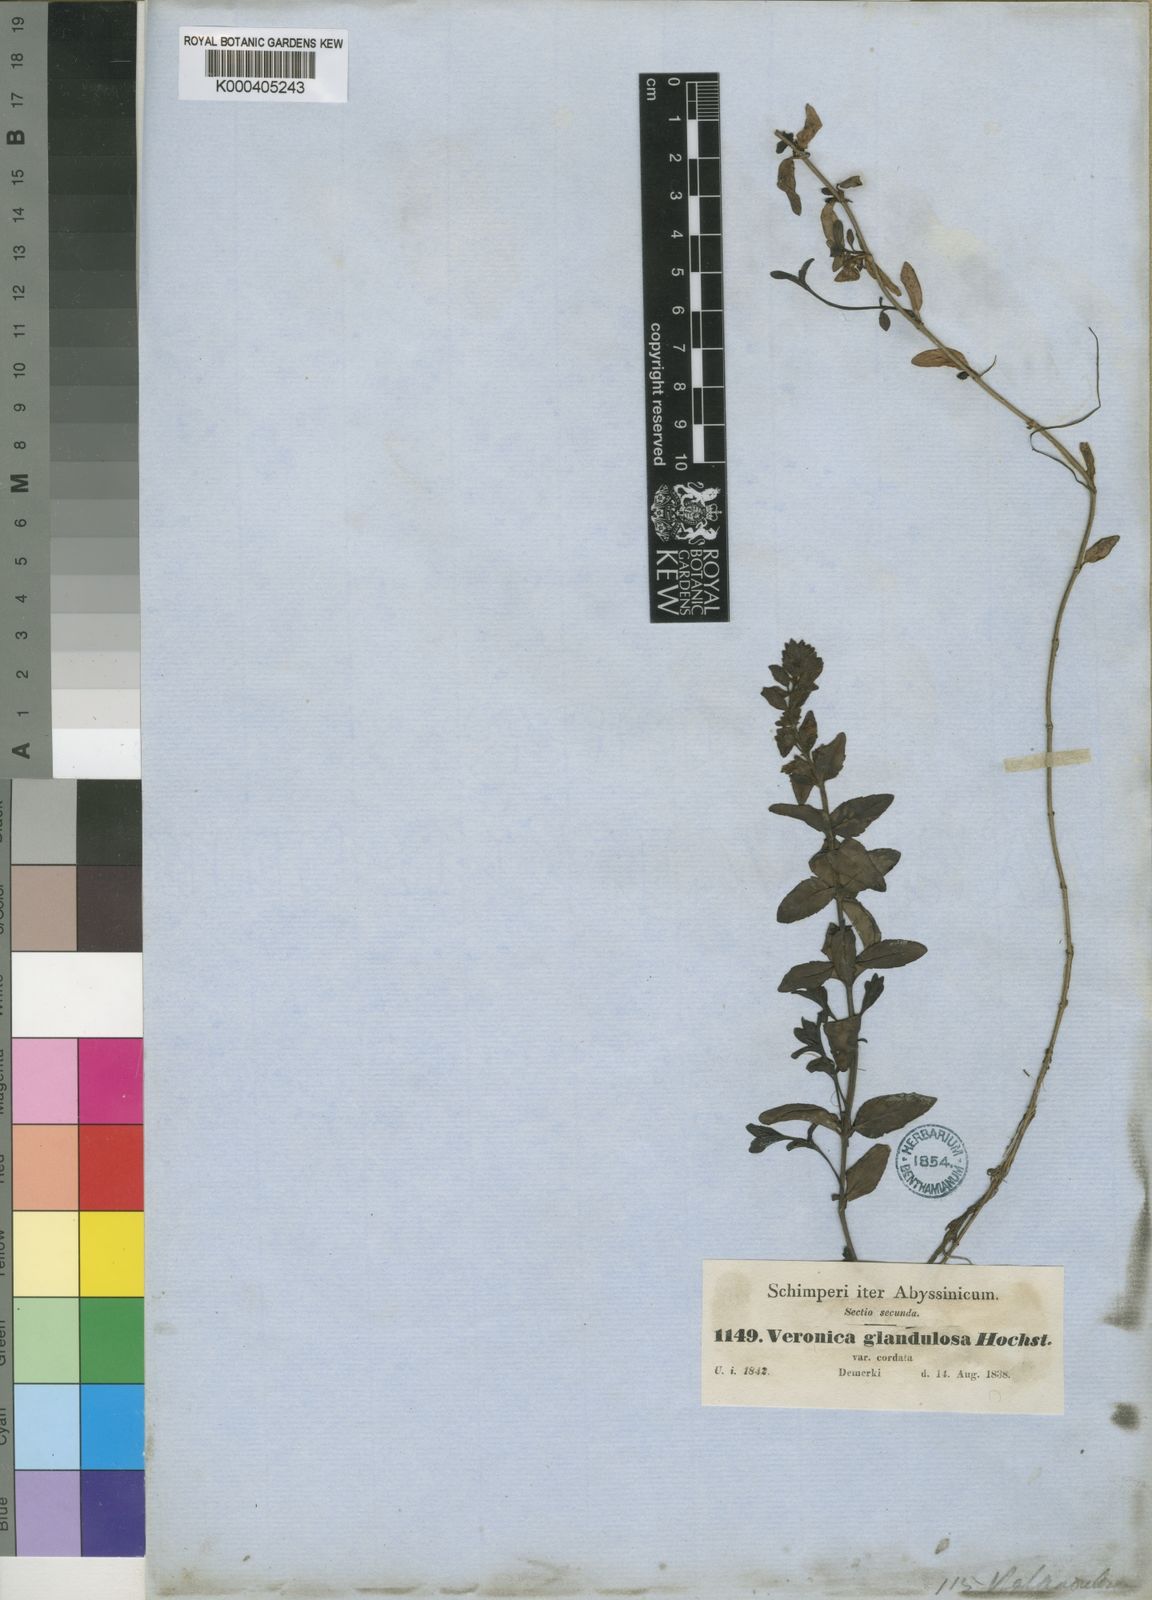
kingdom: Plantae
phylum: Tracheophyta
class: Magnoliopsida
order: Lamiales
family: Plantaginaceae
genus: Veronica
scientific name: Veronica glandulosa
